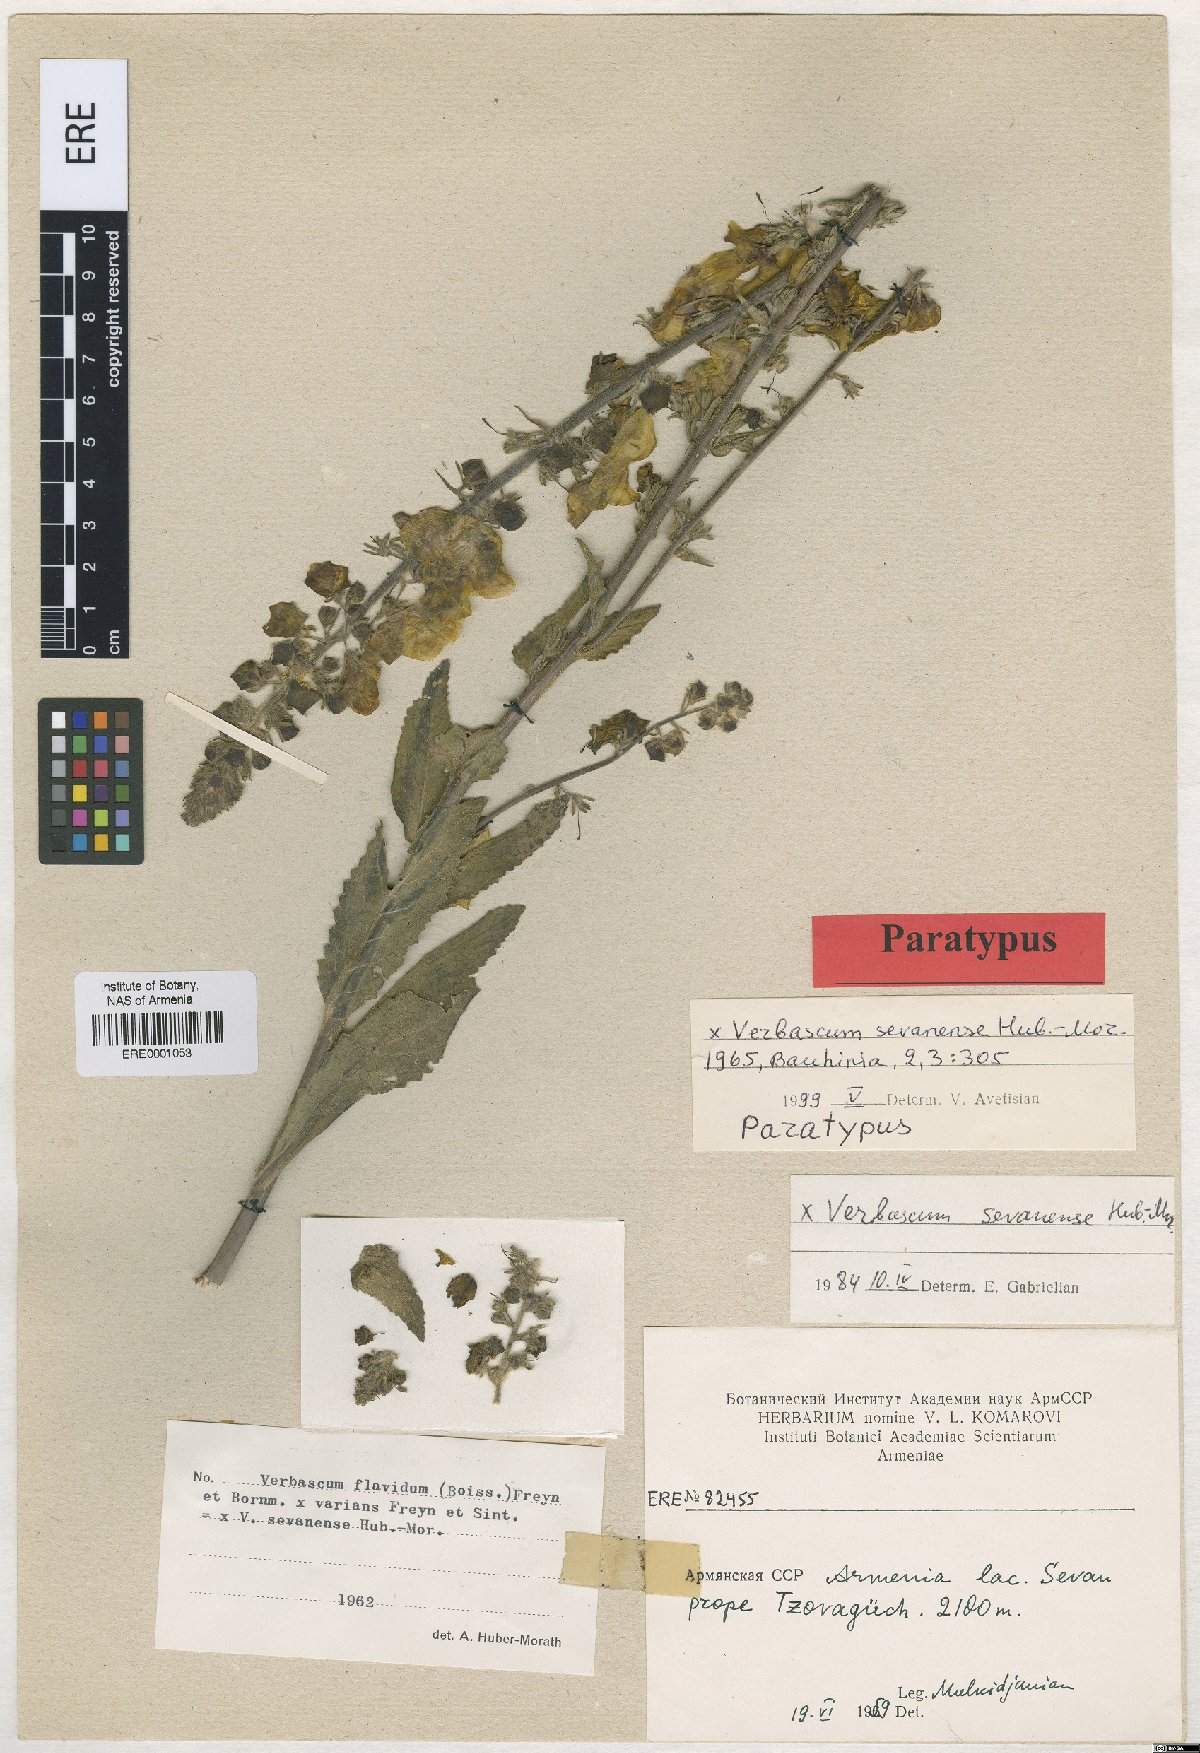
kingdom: Plantae
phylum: Tracheophyta
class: Magnoliopsida
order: Lamiales
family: Scrophulariaceae
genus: Verbascum
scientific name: Verbascum sevanense
